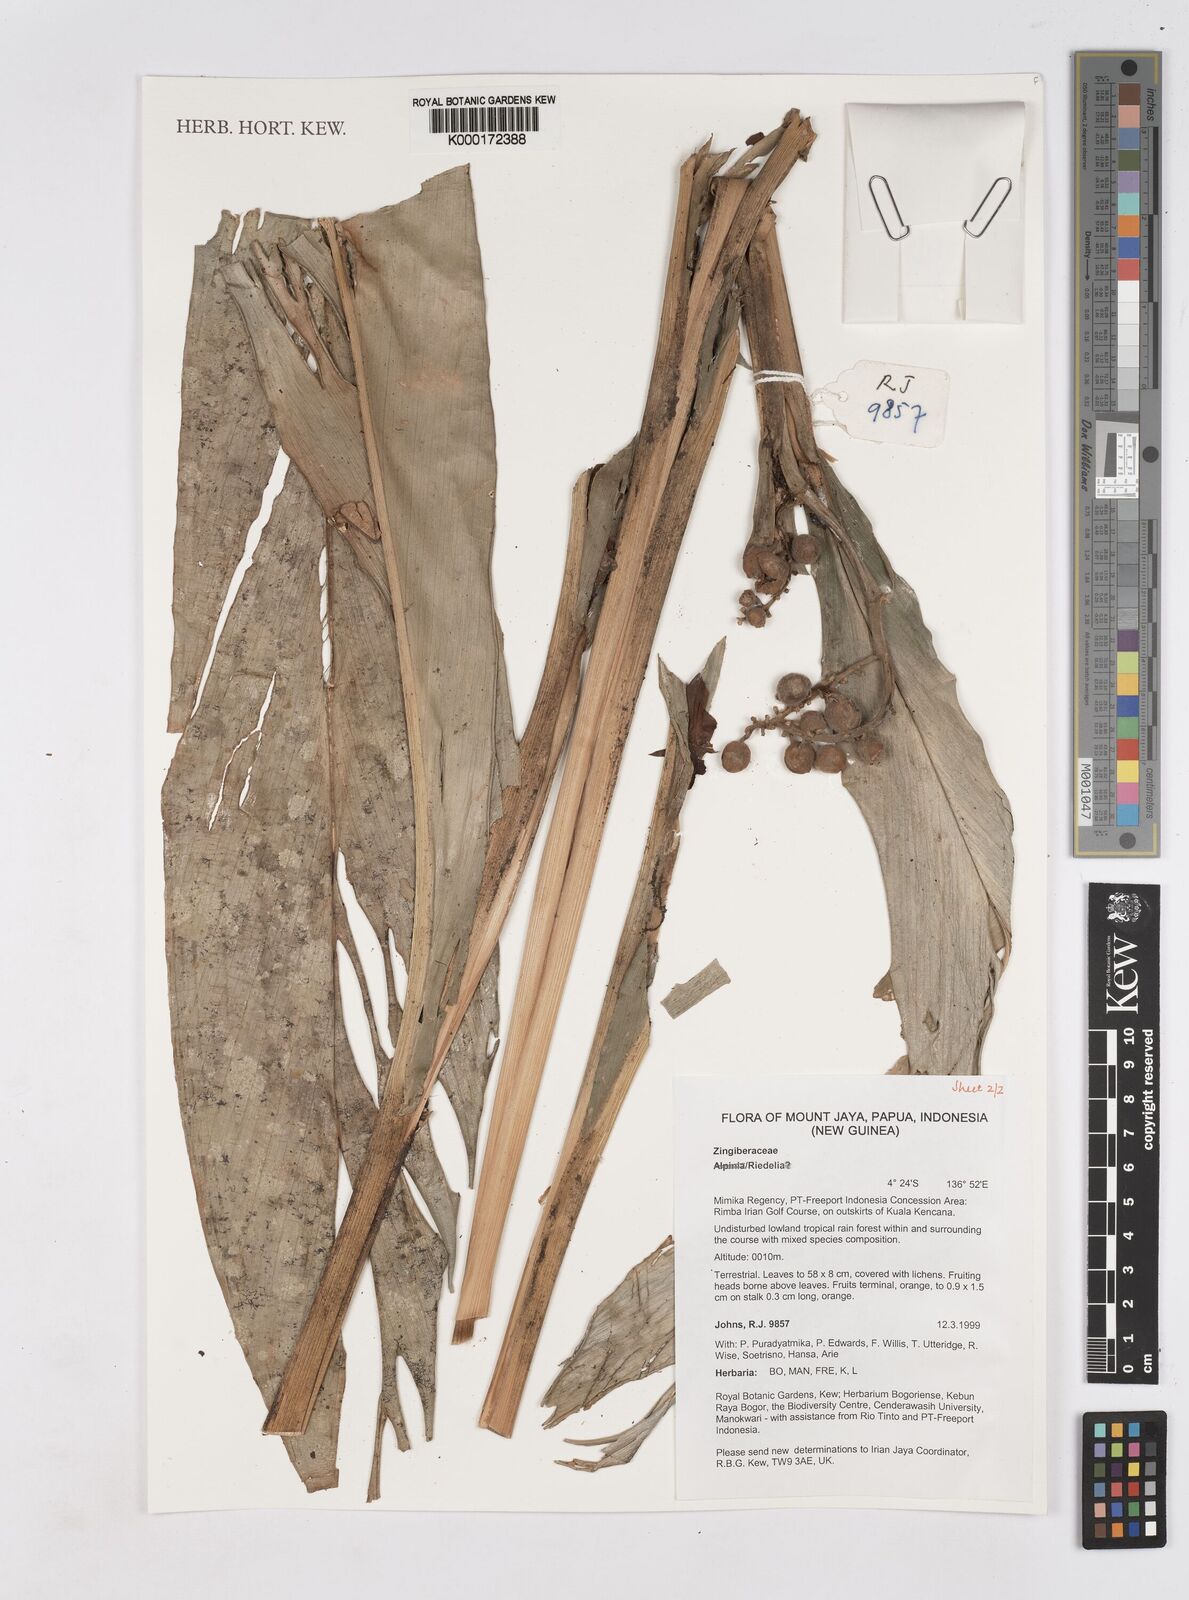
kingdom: Plantae
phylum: Tracheophyta
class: Liliopsida
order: Zingiberales
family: Zingiberaceae
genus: Riedelia
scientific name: Riedelia
